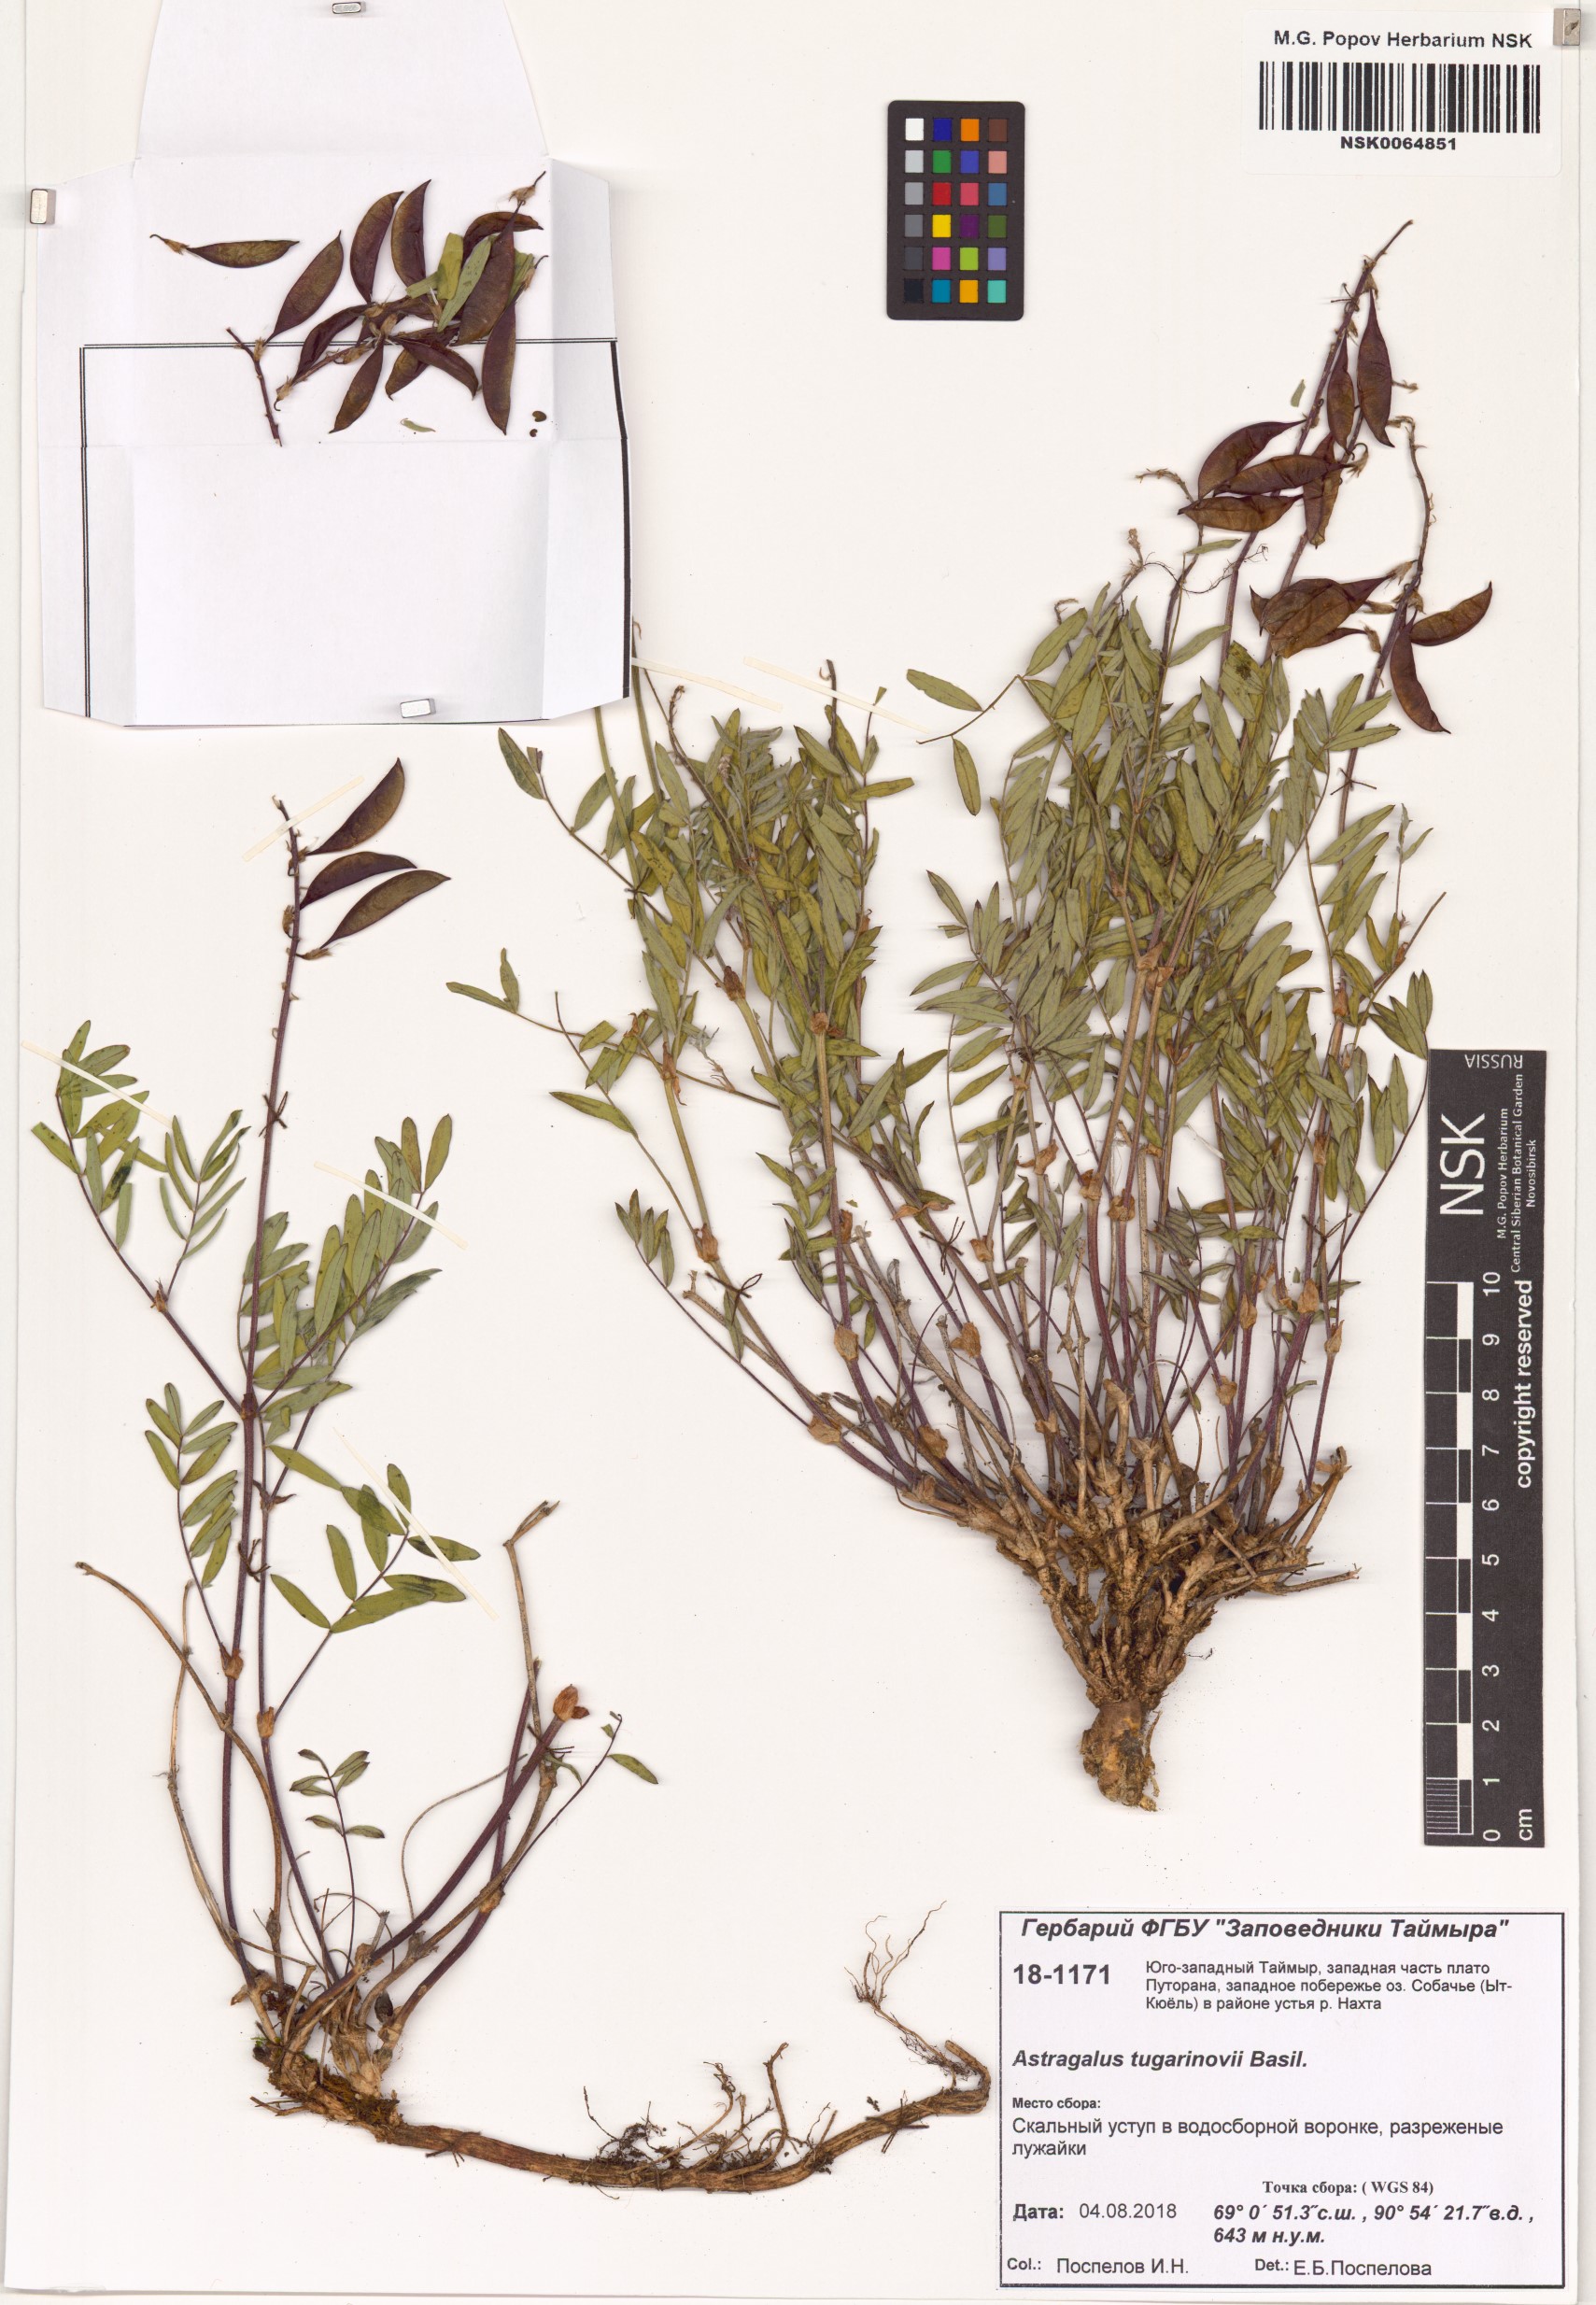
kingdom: Plantae
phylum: Tracheophyta
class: Magnoliopsida
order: Fabales
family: Fabaceae
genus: Astragalus
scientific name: Astragalus tugarinovii
